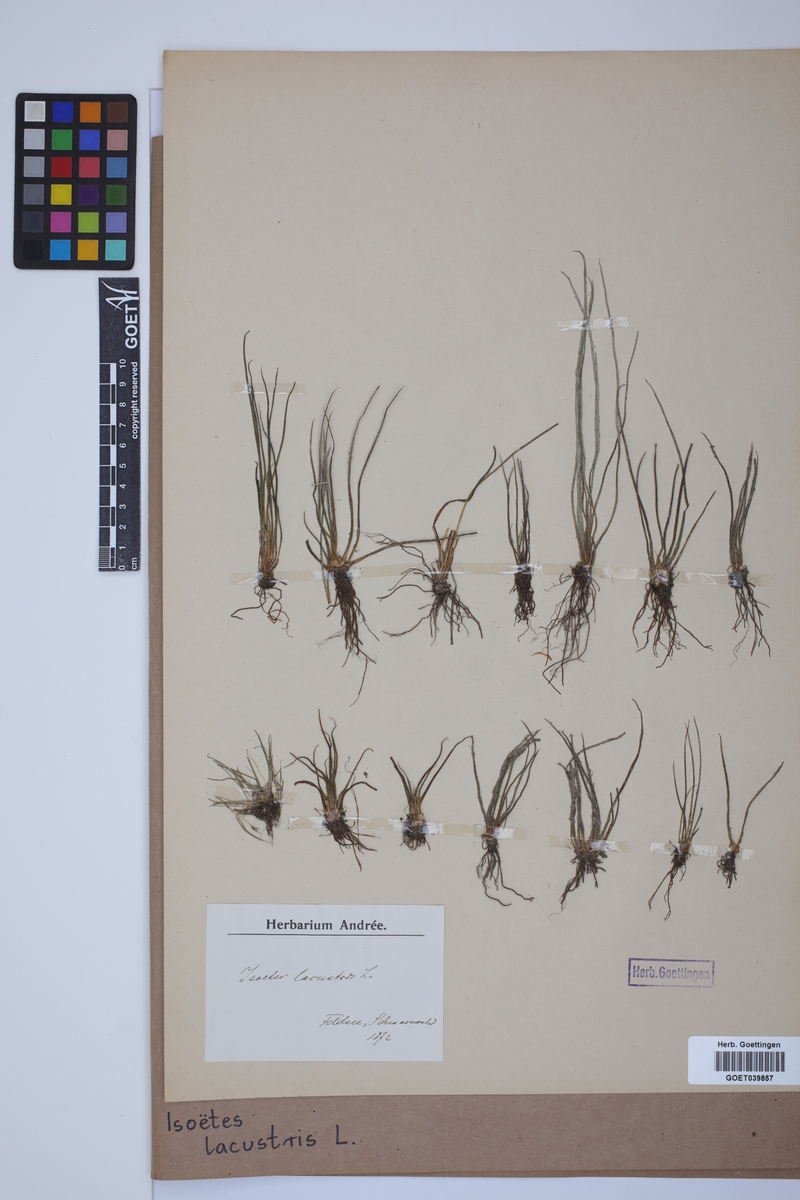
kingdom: Plantae
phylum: Tracheophyta
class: Lycopodiopsida
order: Isoetales
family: Isoetaceae
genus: Isoetes
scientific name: Isoetes lacustris
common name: Common quillwort
